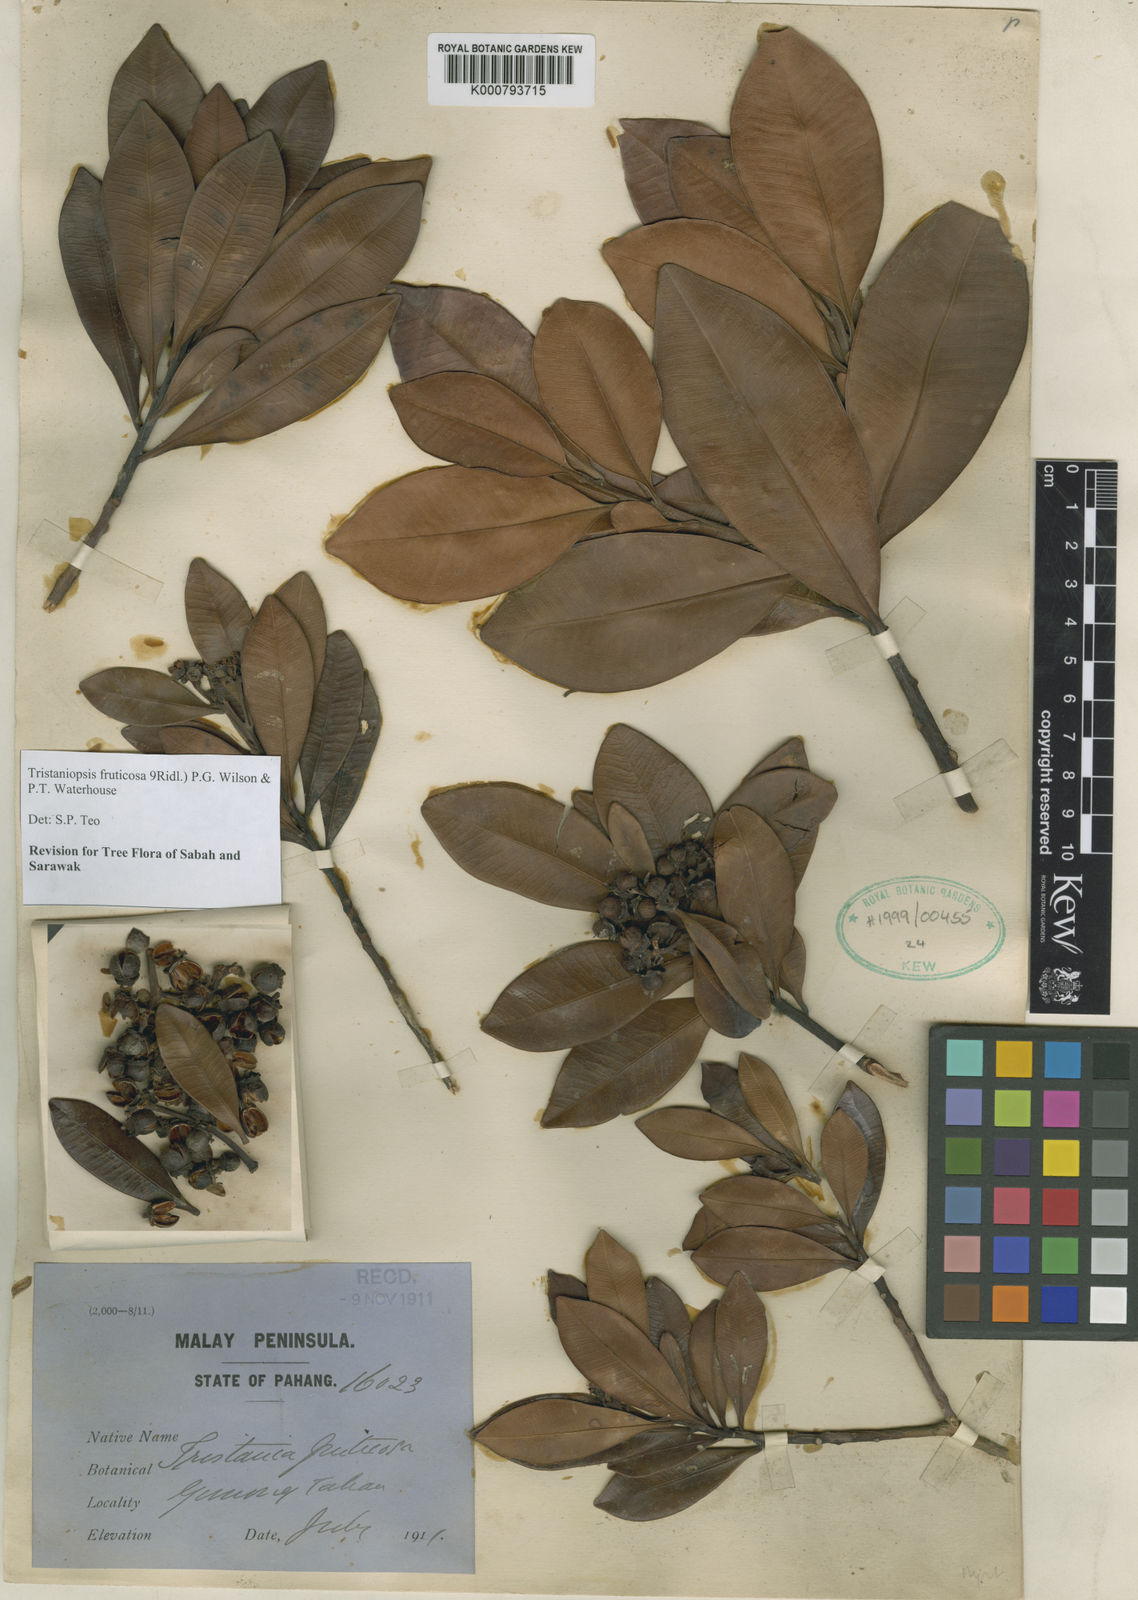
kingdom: Plantae
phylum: Tracheophyta
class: Magnoliopsida
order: Myrtales
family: Myrtaceae
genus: Tristaniopsis
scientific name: Tristaniopsis fruticosa
